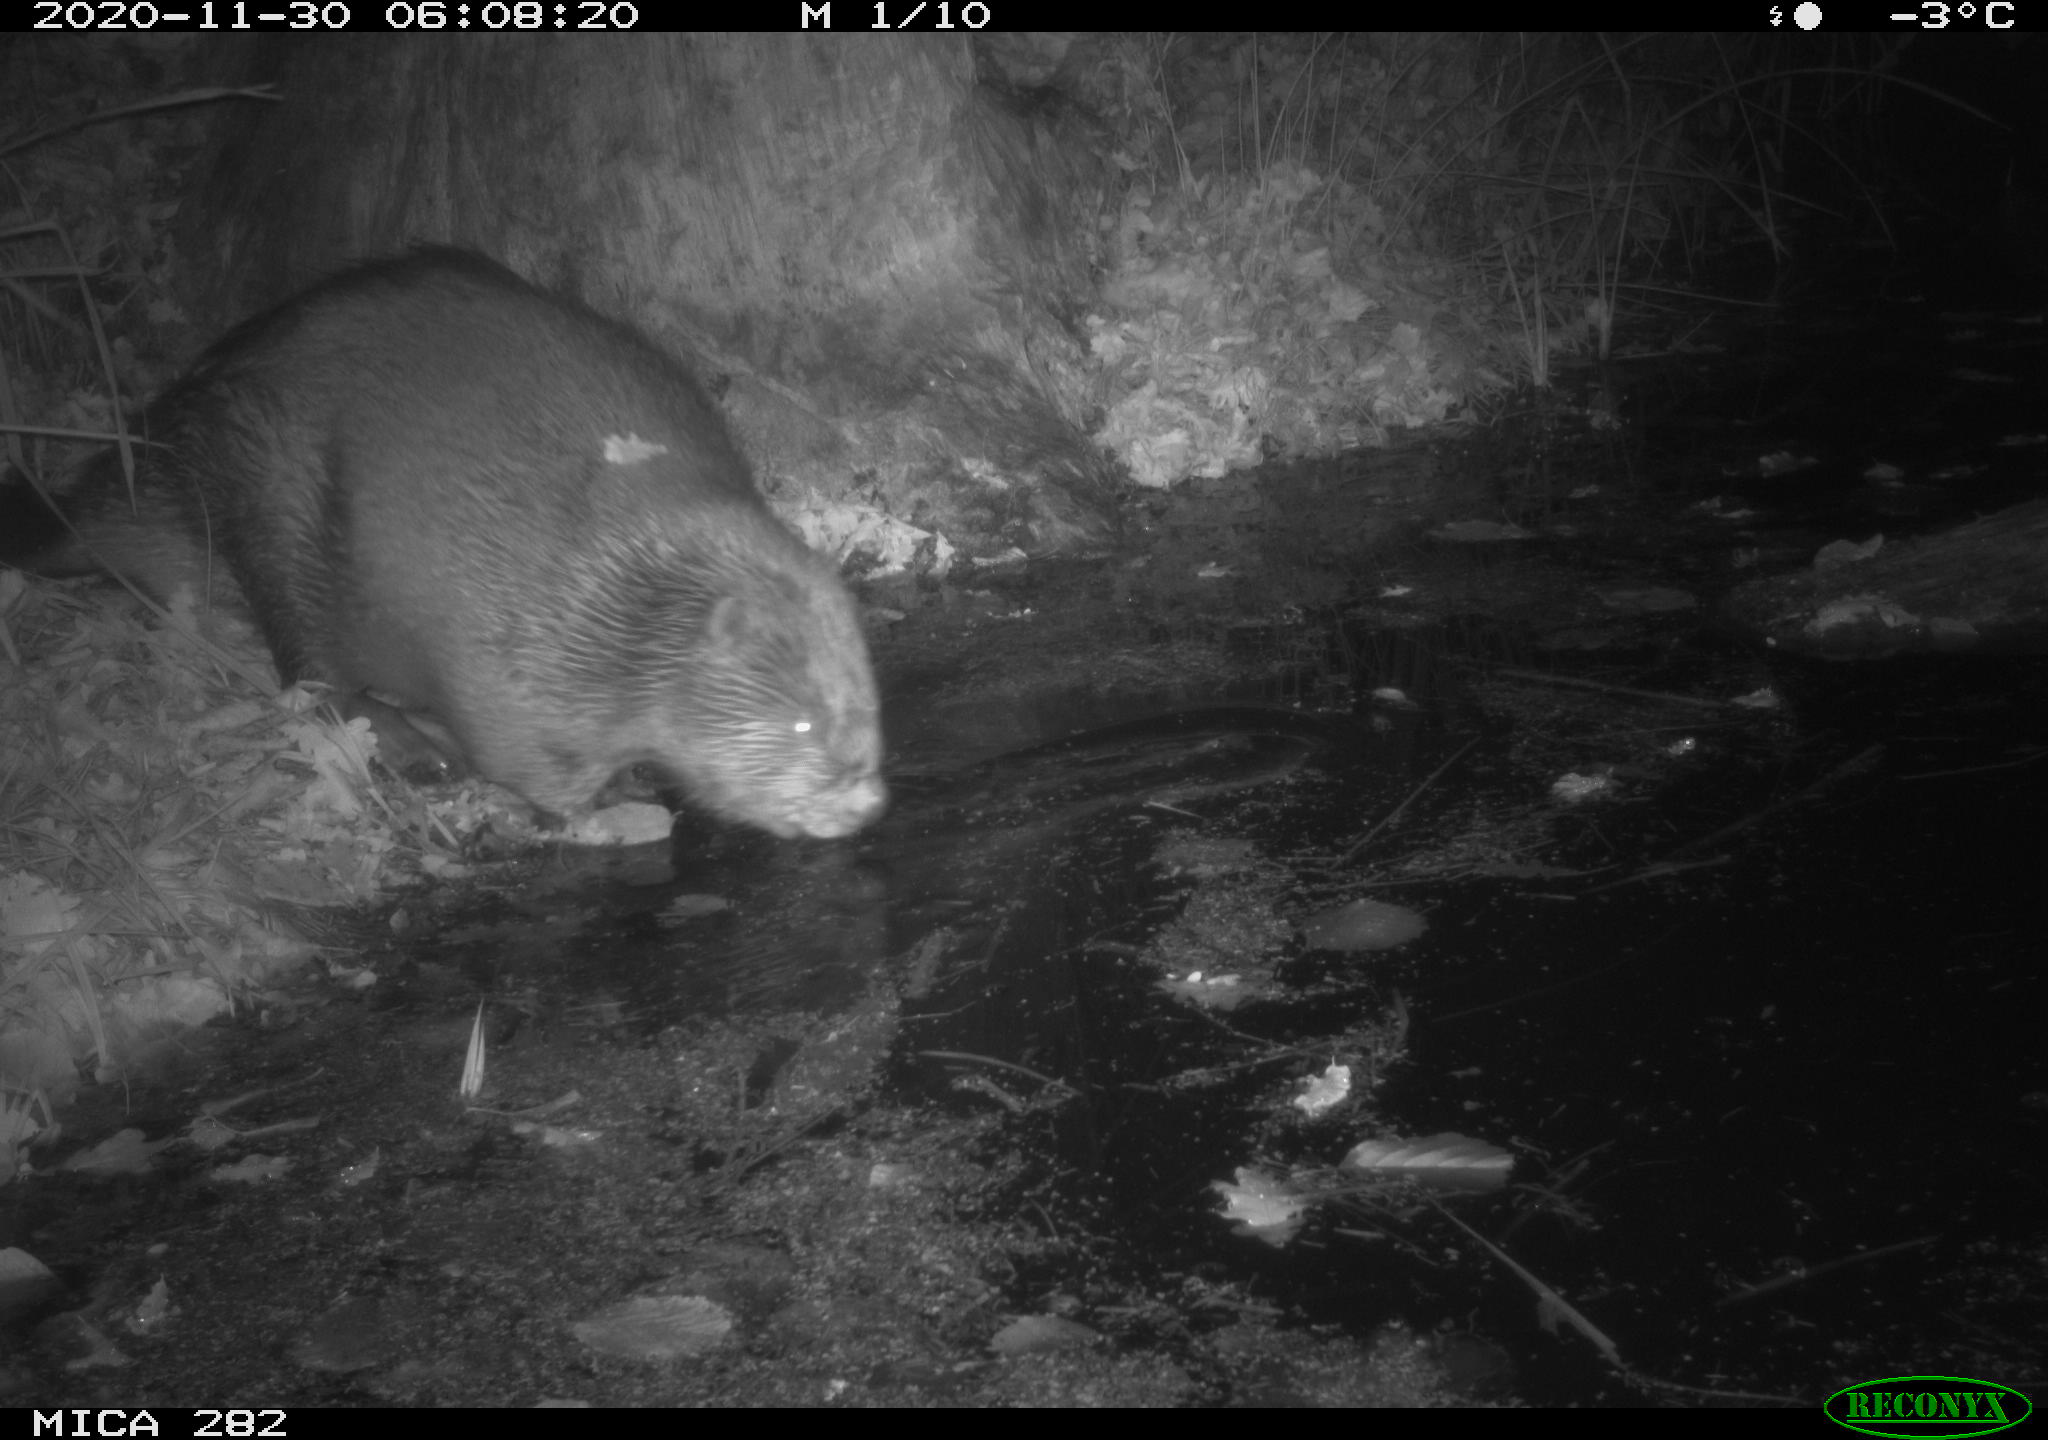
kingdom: Animalia
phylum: Chordata
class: Mammalia
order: Rodentia
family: Castoridae
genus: Castor
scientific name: Castor fiber
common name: Eurasian beaver
